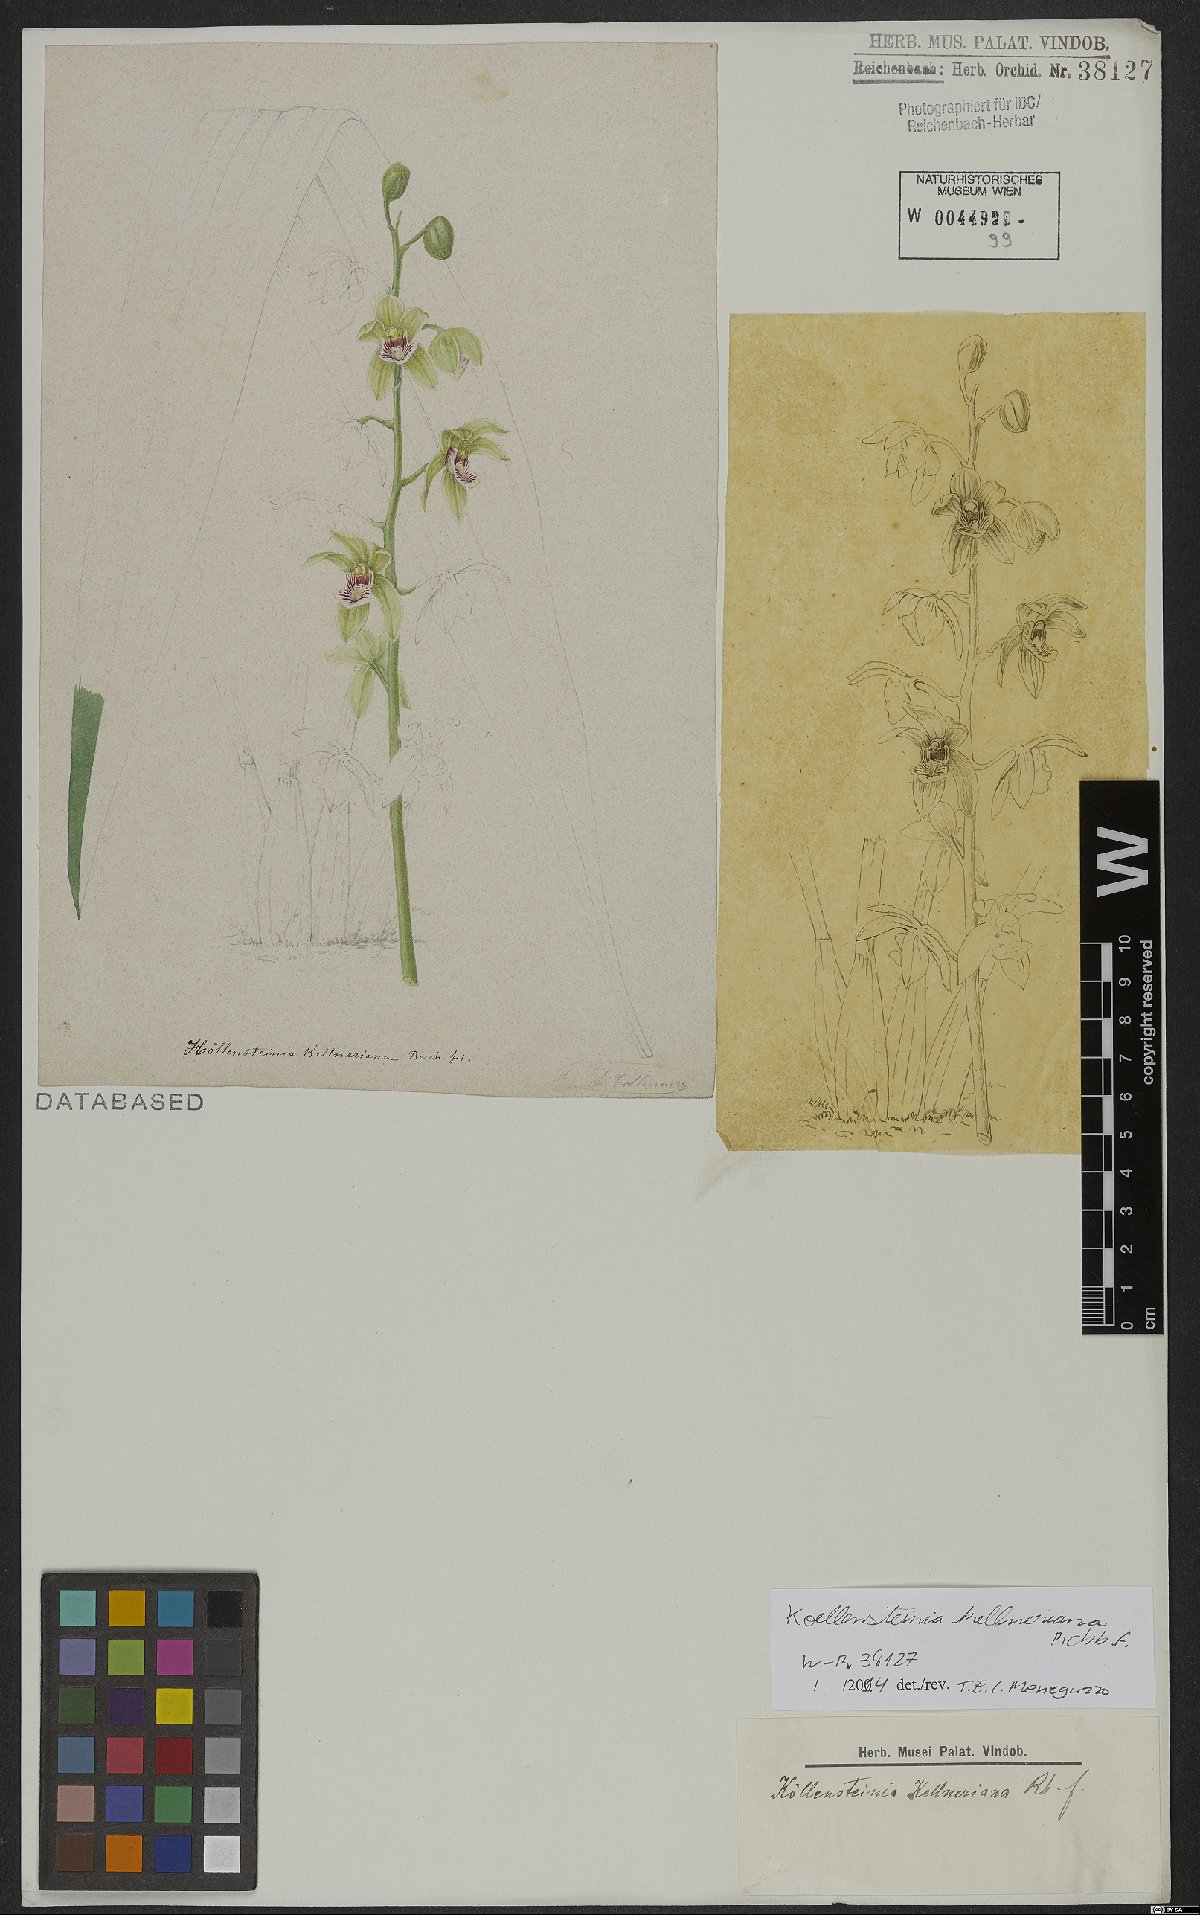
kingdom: Plantae
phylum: Tracheophyta
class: Liliopsida
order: Asparagales
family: Orchidaceae
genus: Koellensteinia
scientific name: Koellensteinia kellneriana
